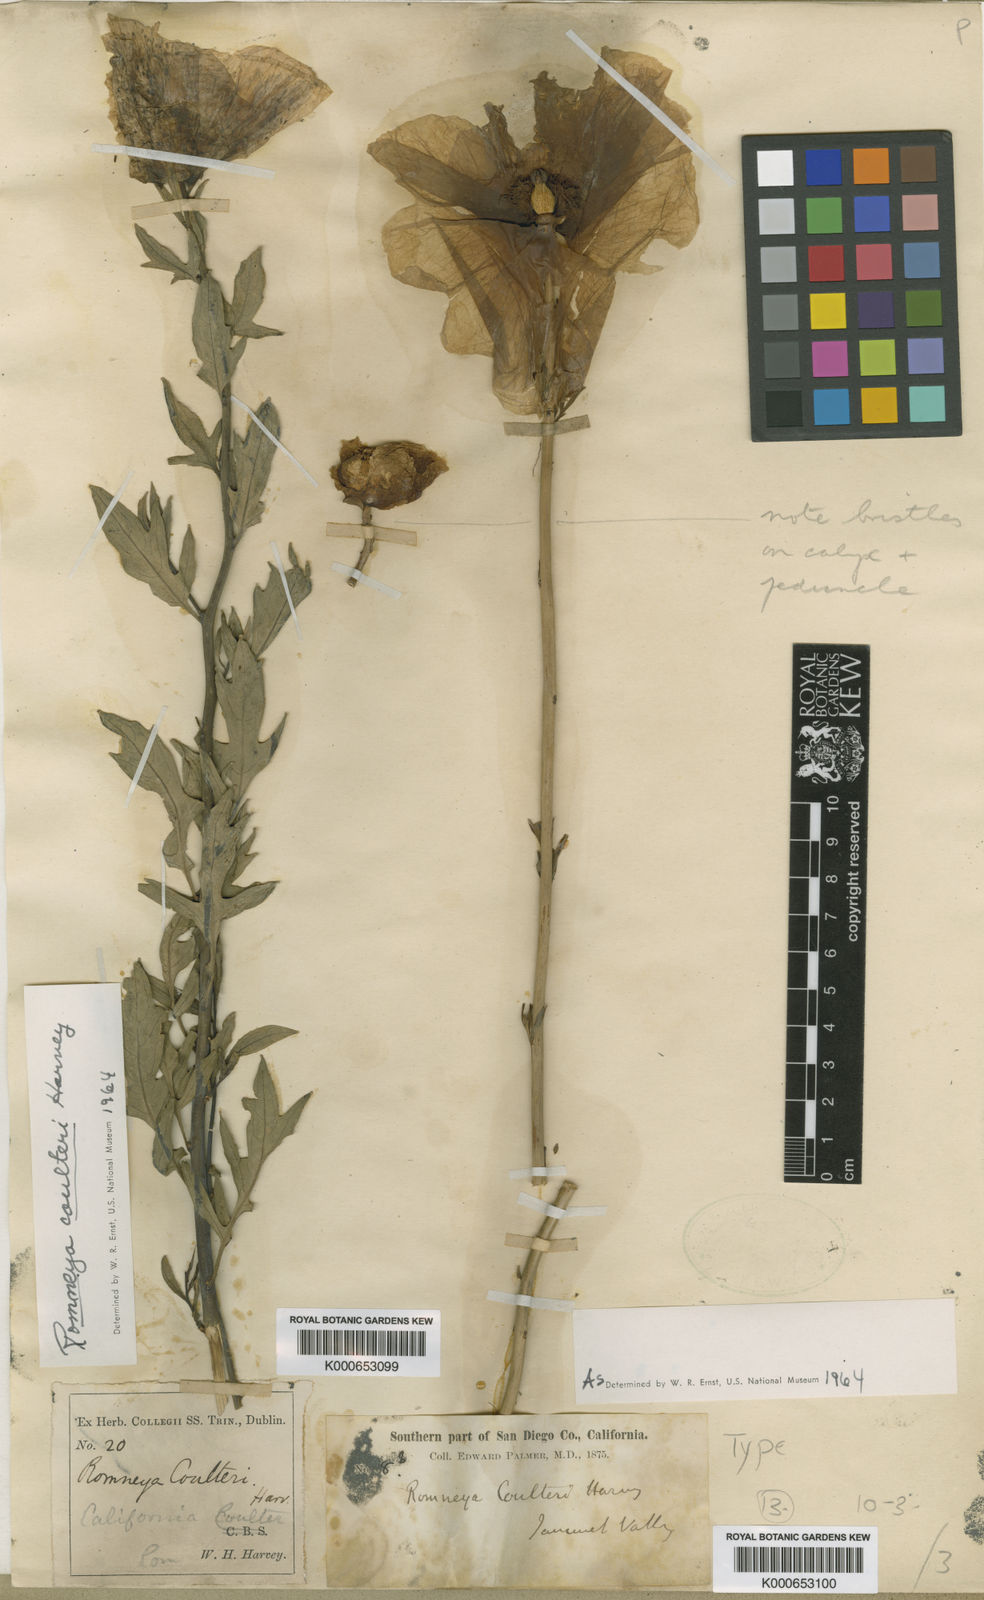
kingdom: Plantae
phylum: Tracheophyta
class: Magnoliopsida
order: Ranunculales
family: Papaveraceae
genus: Romneya
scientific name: Romneya coulteri
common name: California tree-poppy
